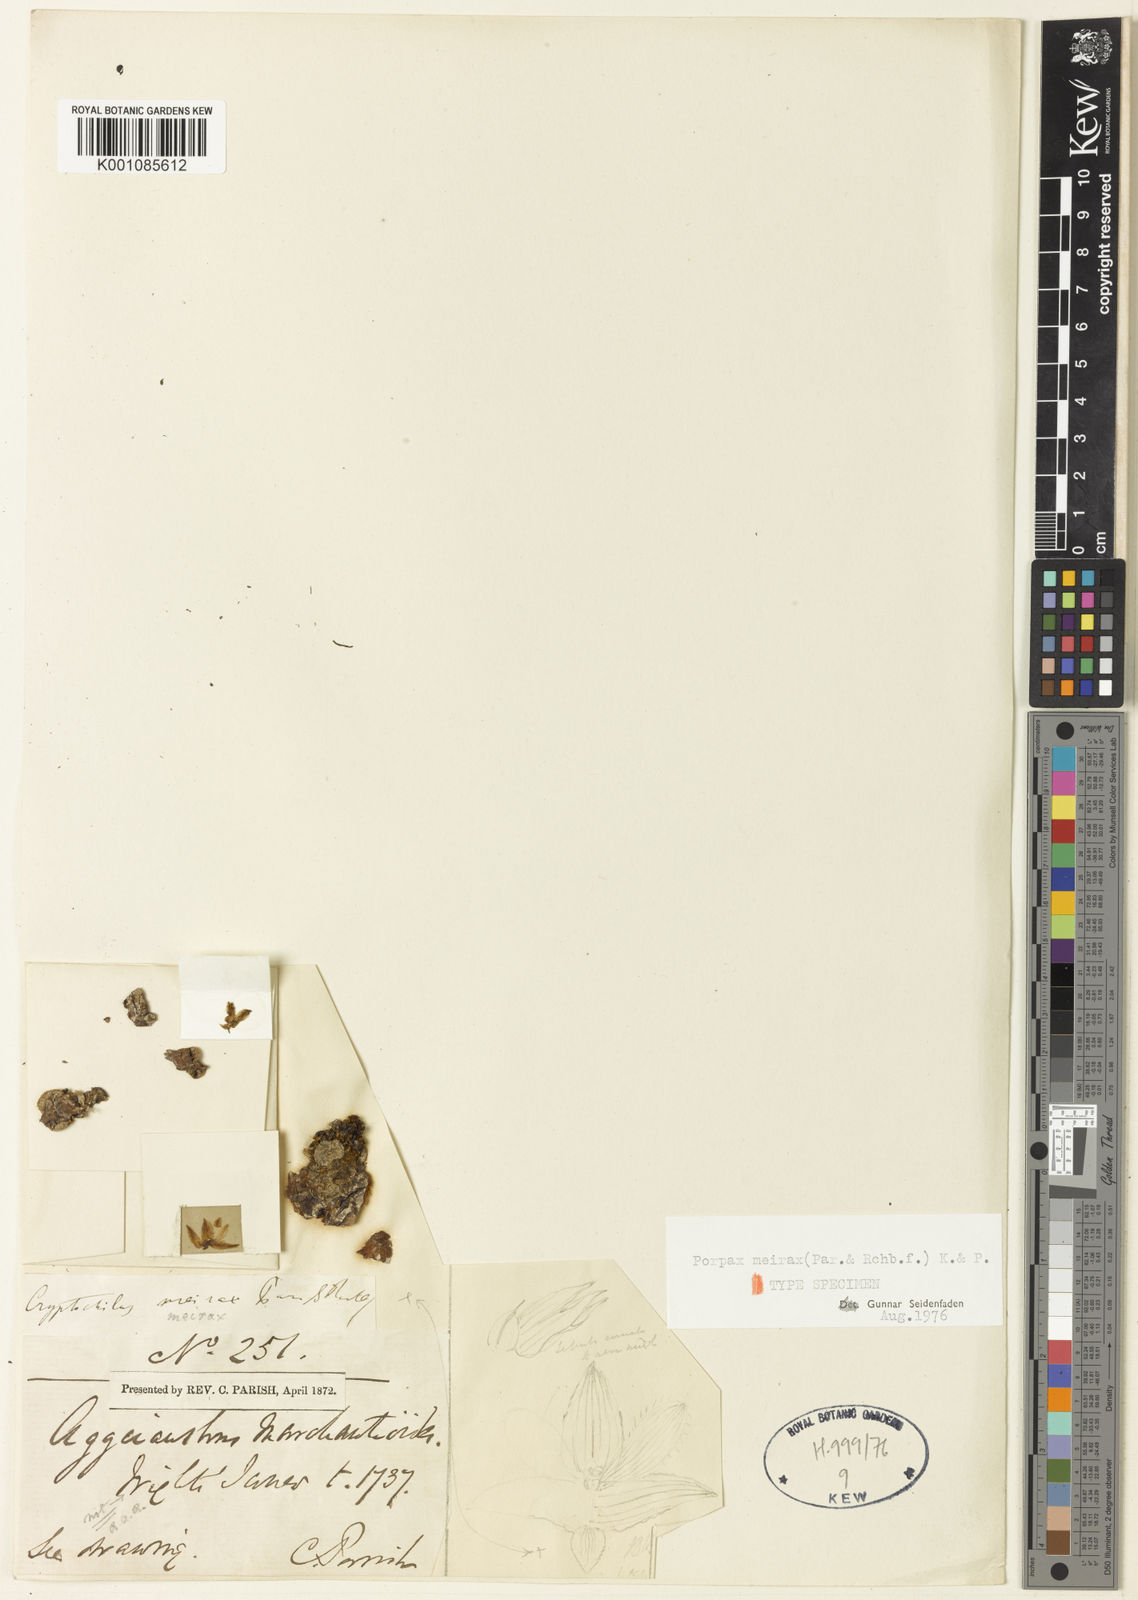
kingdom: Plantae
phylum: Tracheophyta
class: Liliopsida
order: Asparagales
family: Orchidaceae
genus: Porpax
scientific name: Porpax meirax
